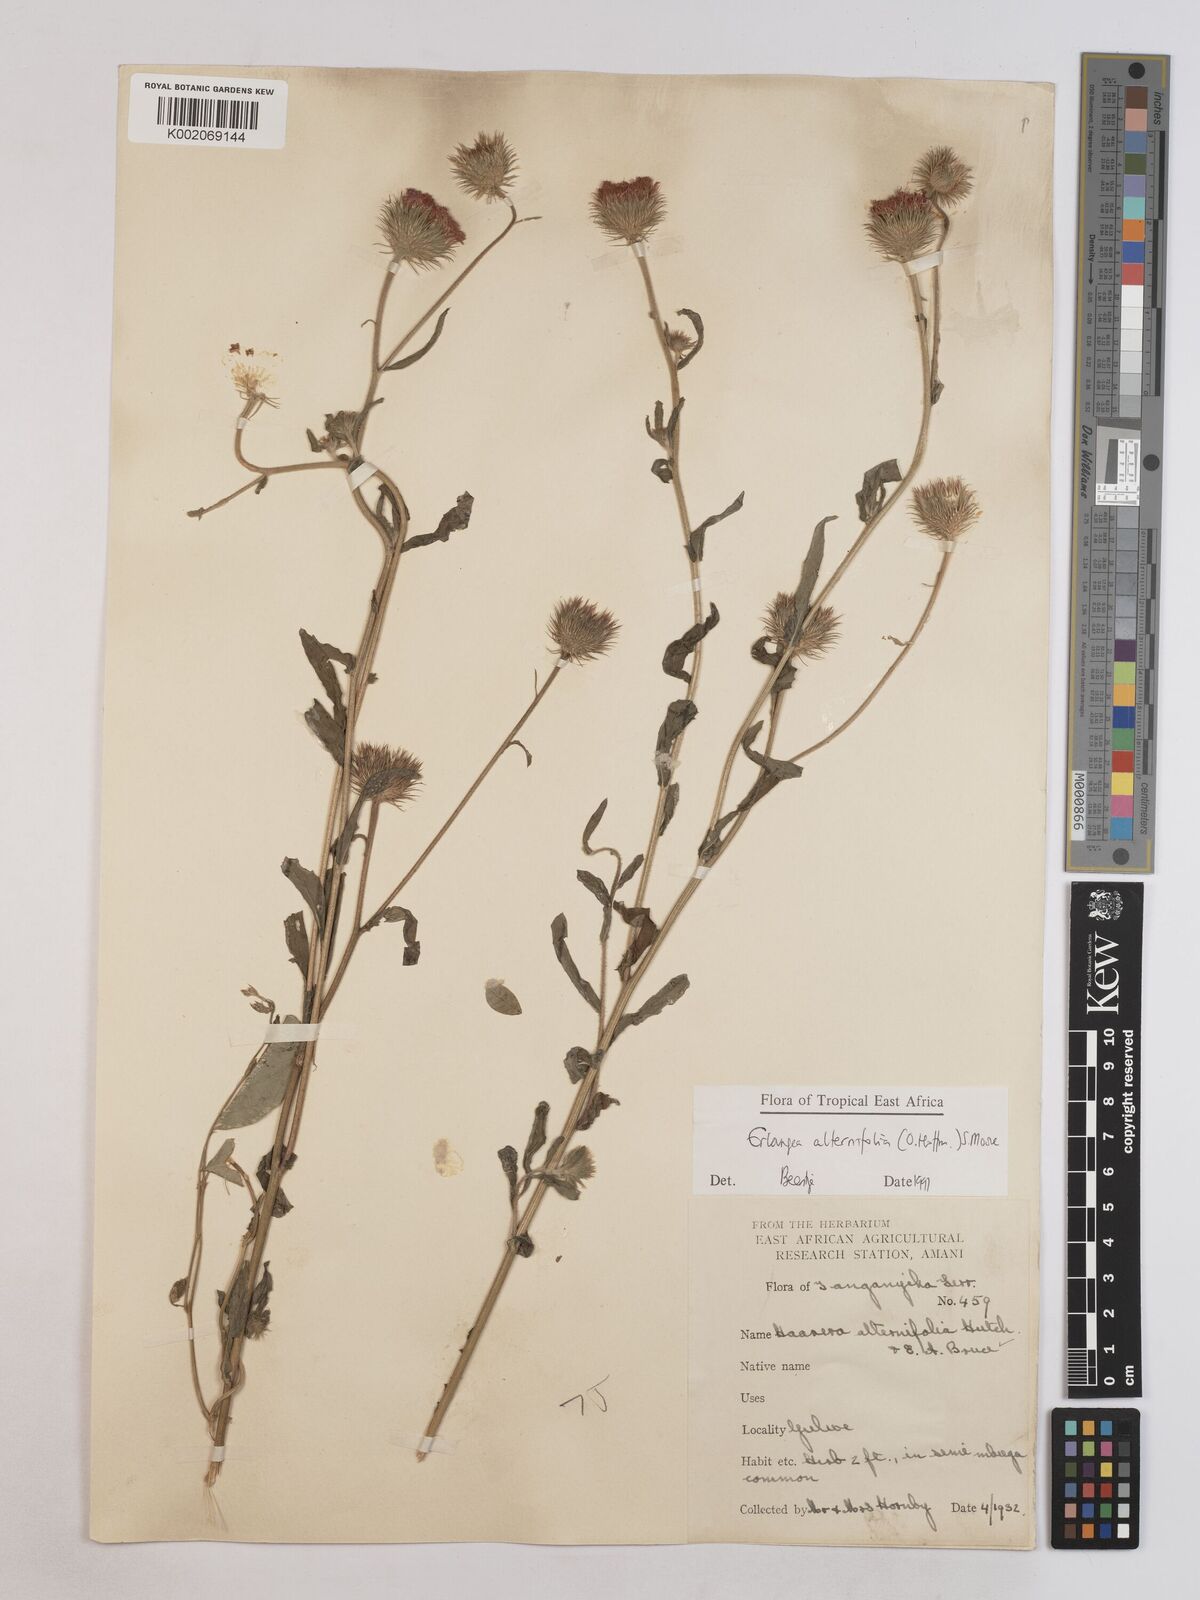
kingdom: Plantae
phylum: Tracheophyta
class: Magnoliopsida
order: Asterales
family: Asteraceae
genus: Erlangea
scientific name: Erlangea alternifolia
